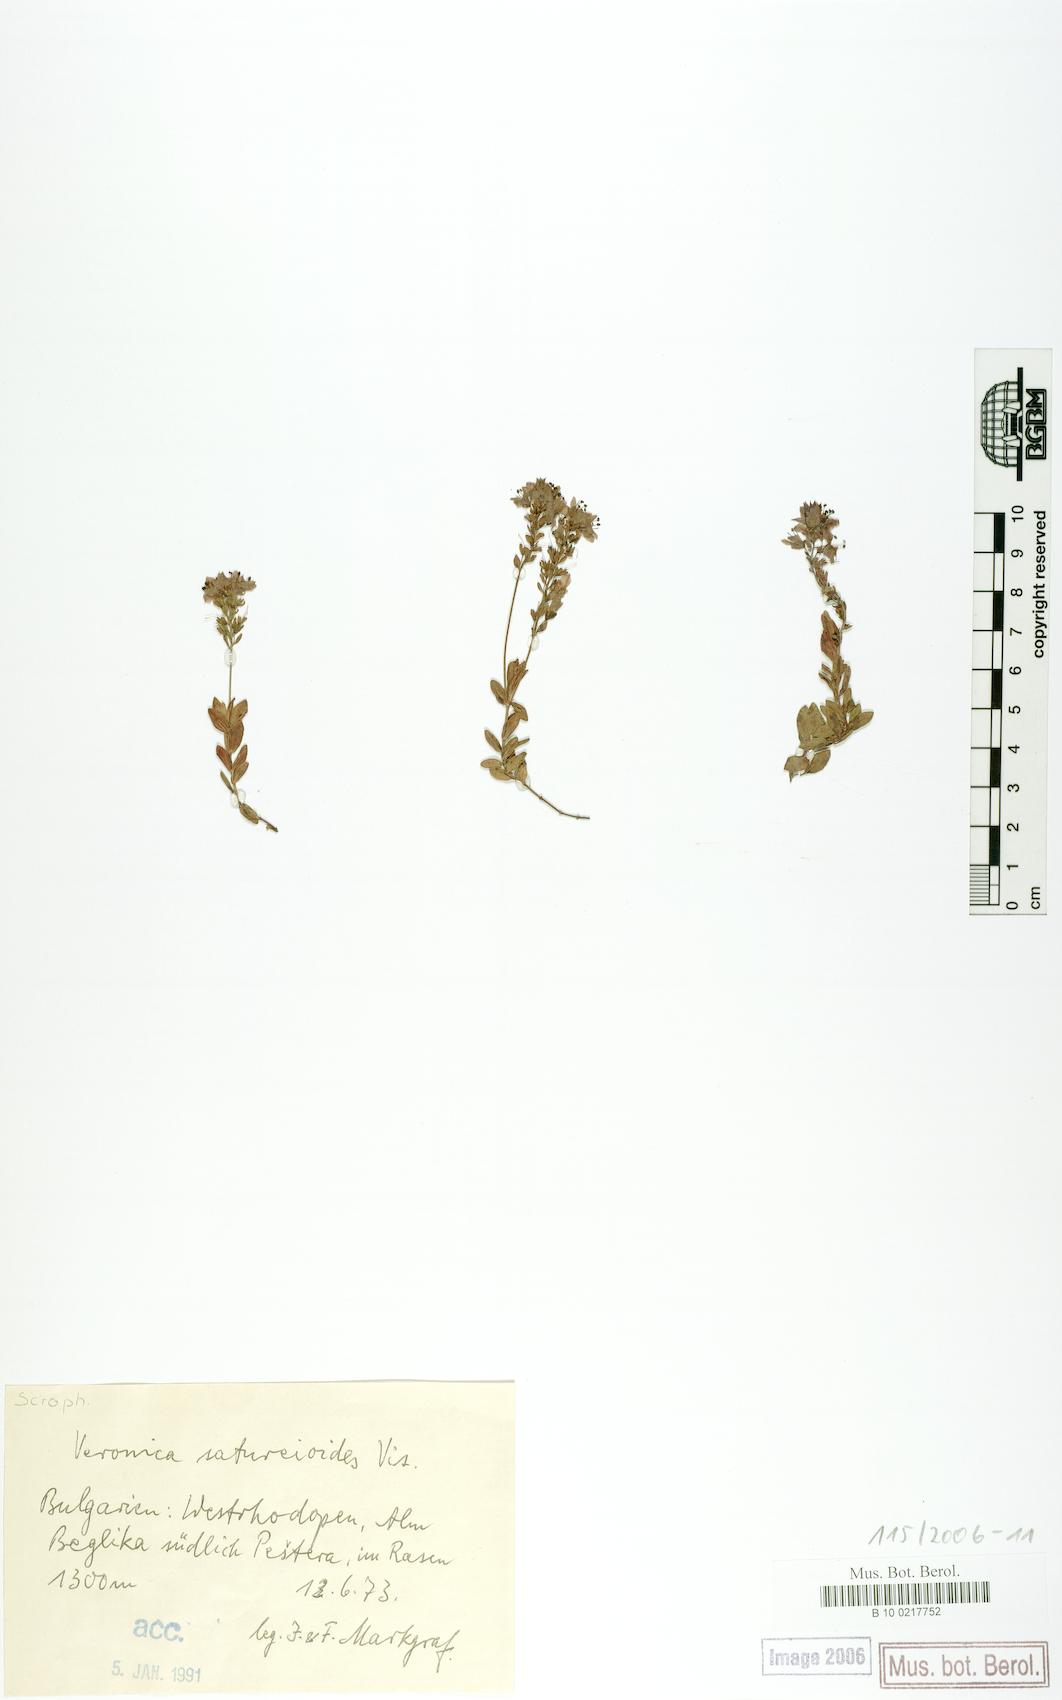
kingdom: Plantae
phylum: Tracheophyta
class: Magnoliopsida
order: Lamiales
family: Plantaginaceae
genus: Veronica
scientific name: Veronica rhodopaea
